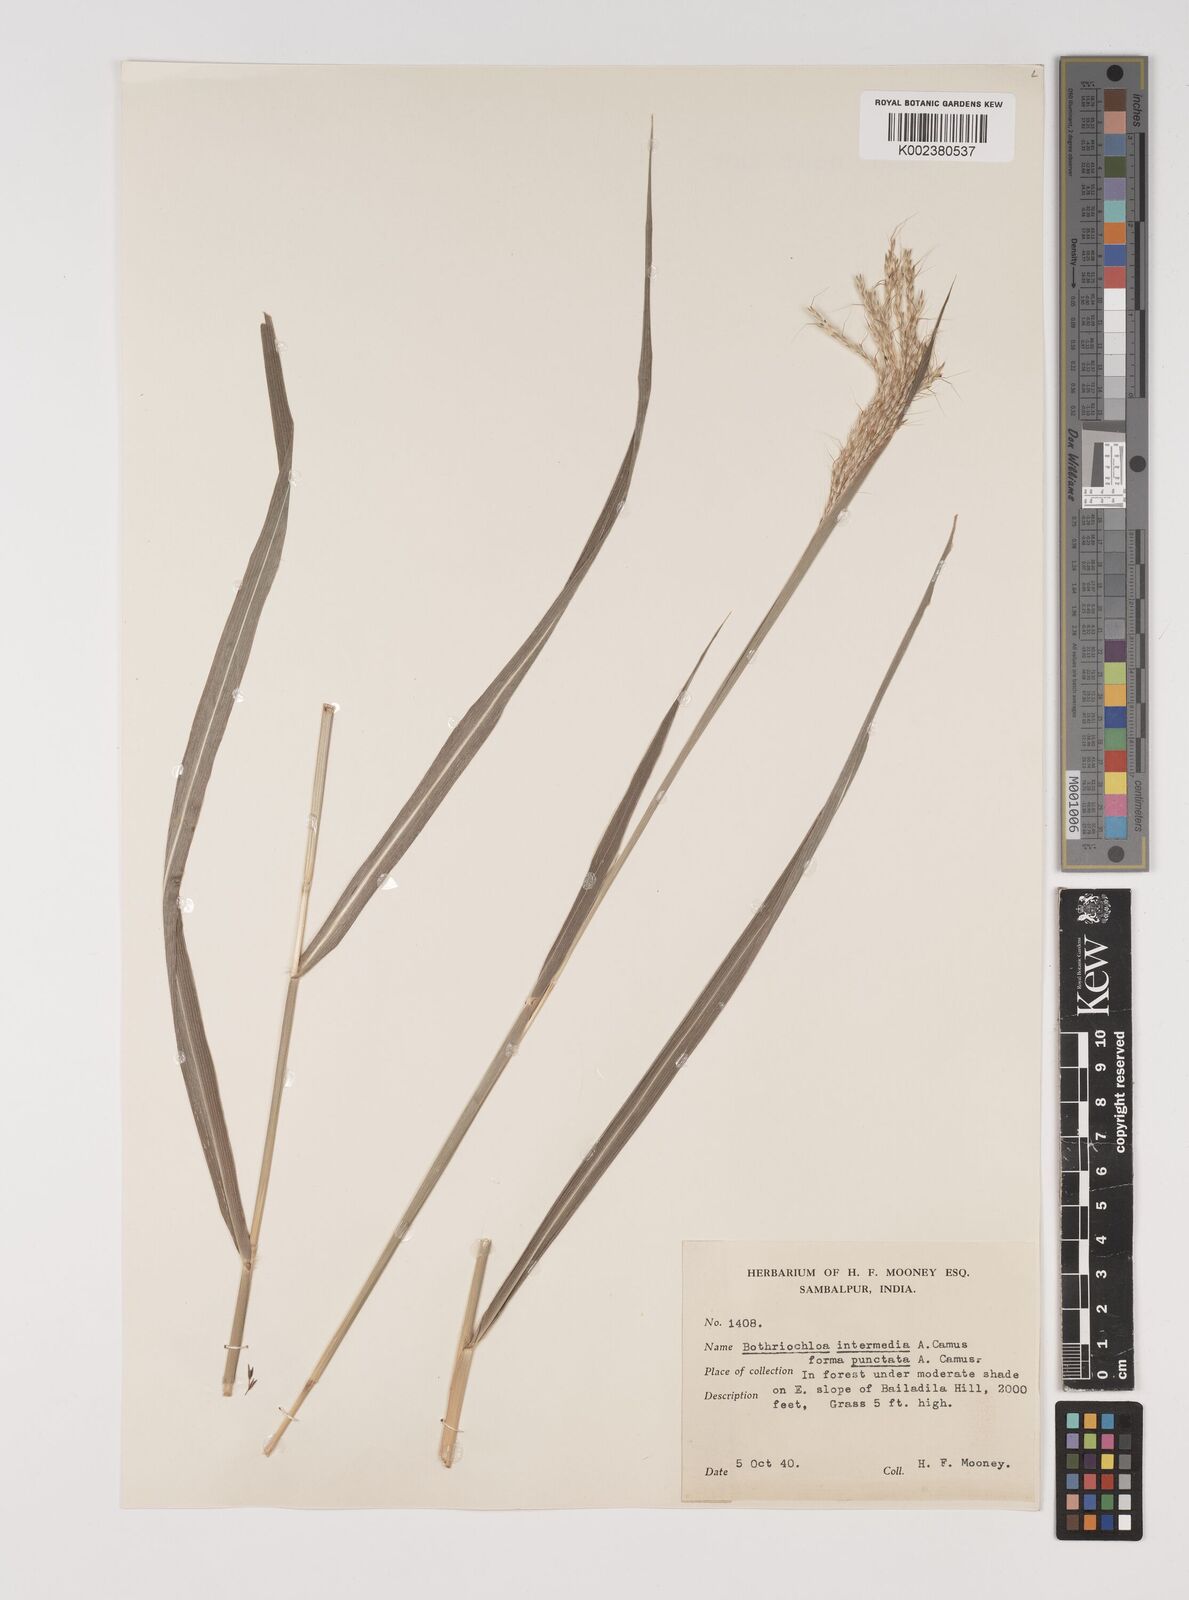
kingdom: Plantae
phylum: Tracheophyta
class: Liliopsida
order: Poales
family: Poaceae
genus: Bothriochloa
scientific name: Bothriochloa bladhii
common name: Caucasian bluestem
